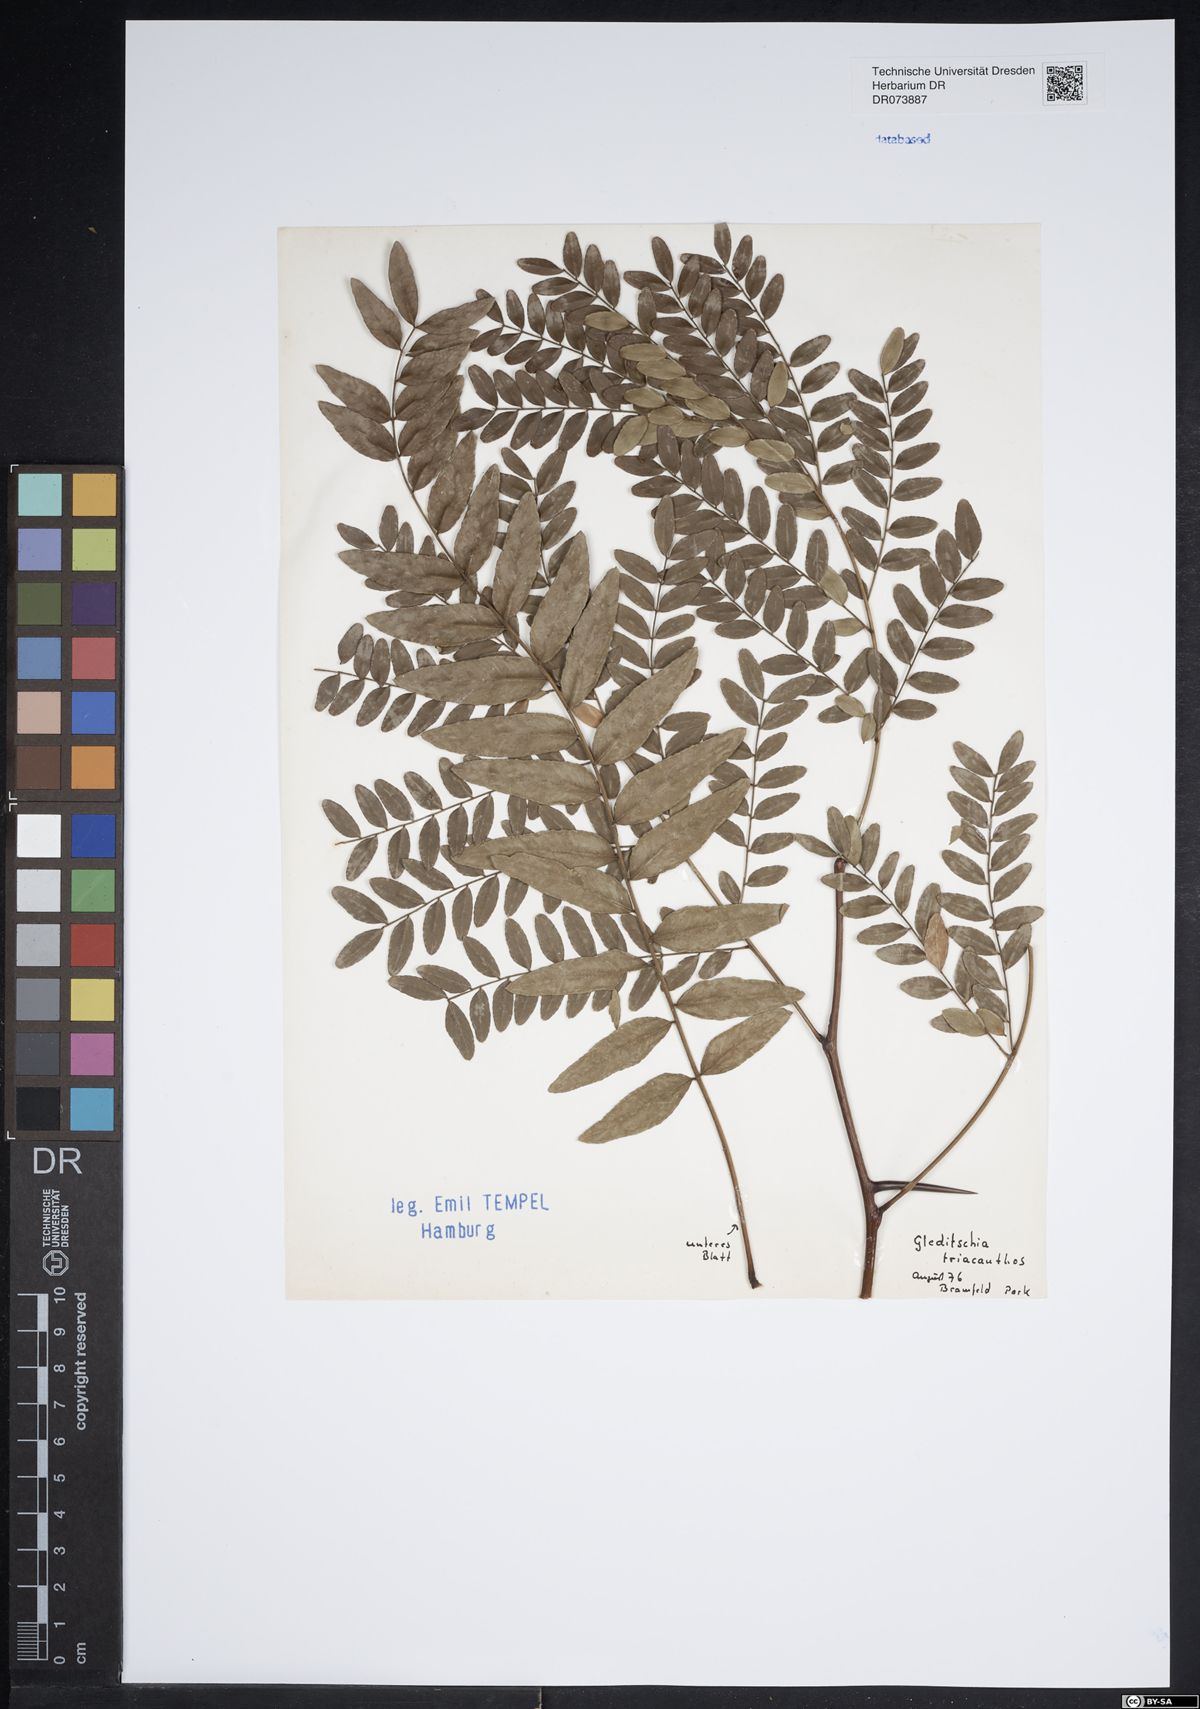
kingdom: Plantae
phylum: Tracheophyta
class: Magnoliopsida
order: Fabales
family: Fabaceae
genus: Gleditsia
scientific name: Gleditsia triacanthos
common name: Common honeylocust
